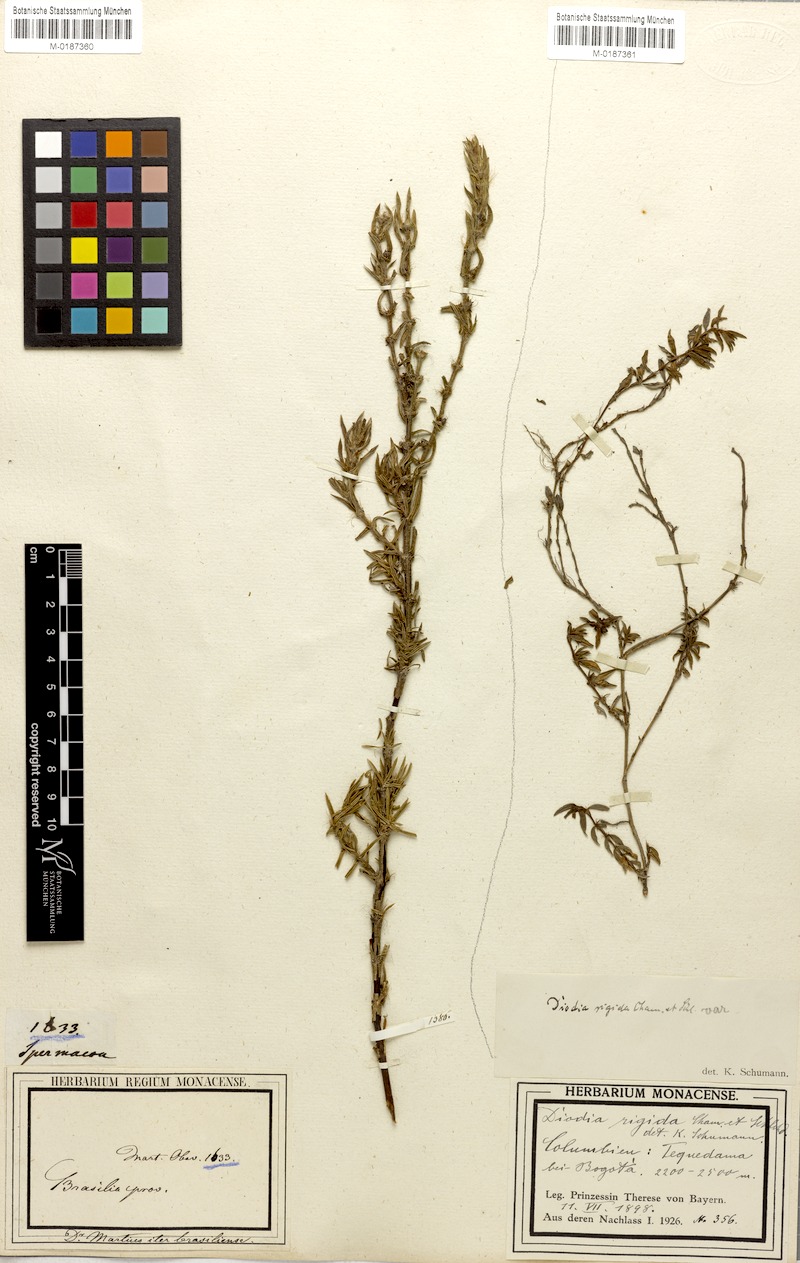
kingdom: Plantae
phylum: Tracheophyta
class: Magnoliopsida
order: Gentianales
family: Rubiaceae
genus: Hexasepalum
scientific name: Hexasepalum apiculatum
